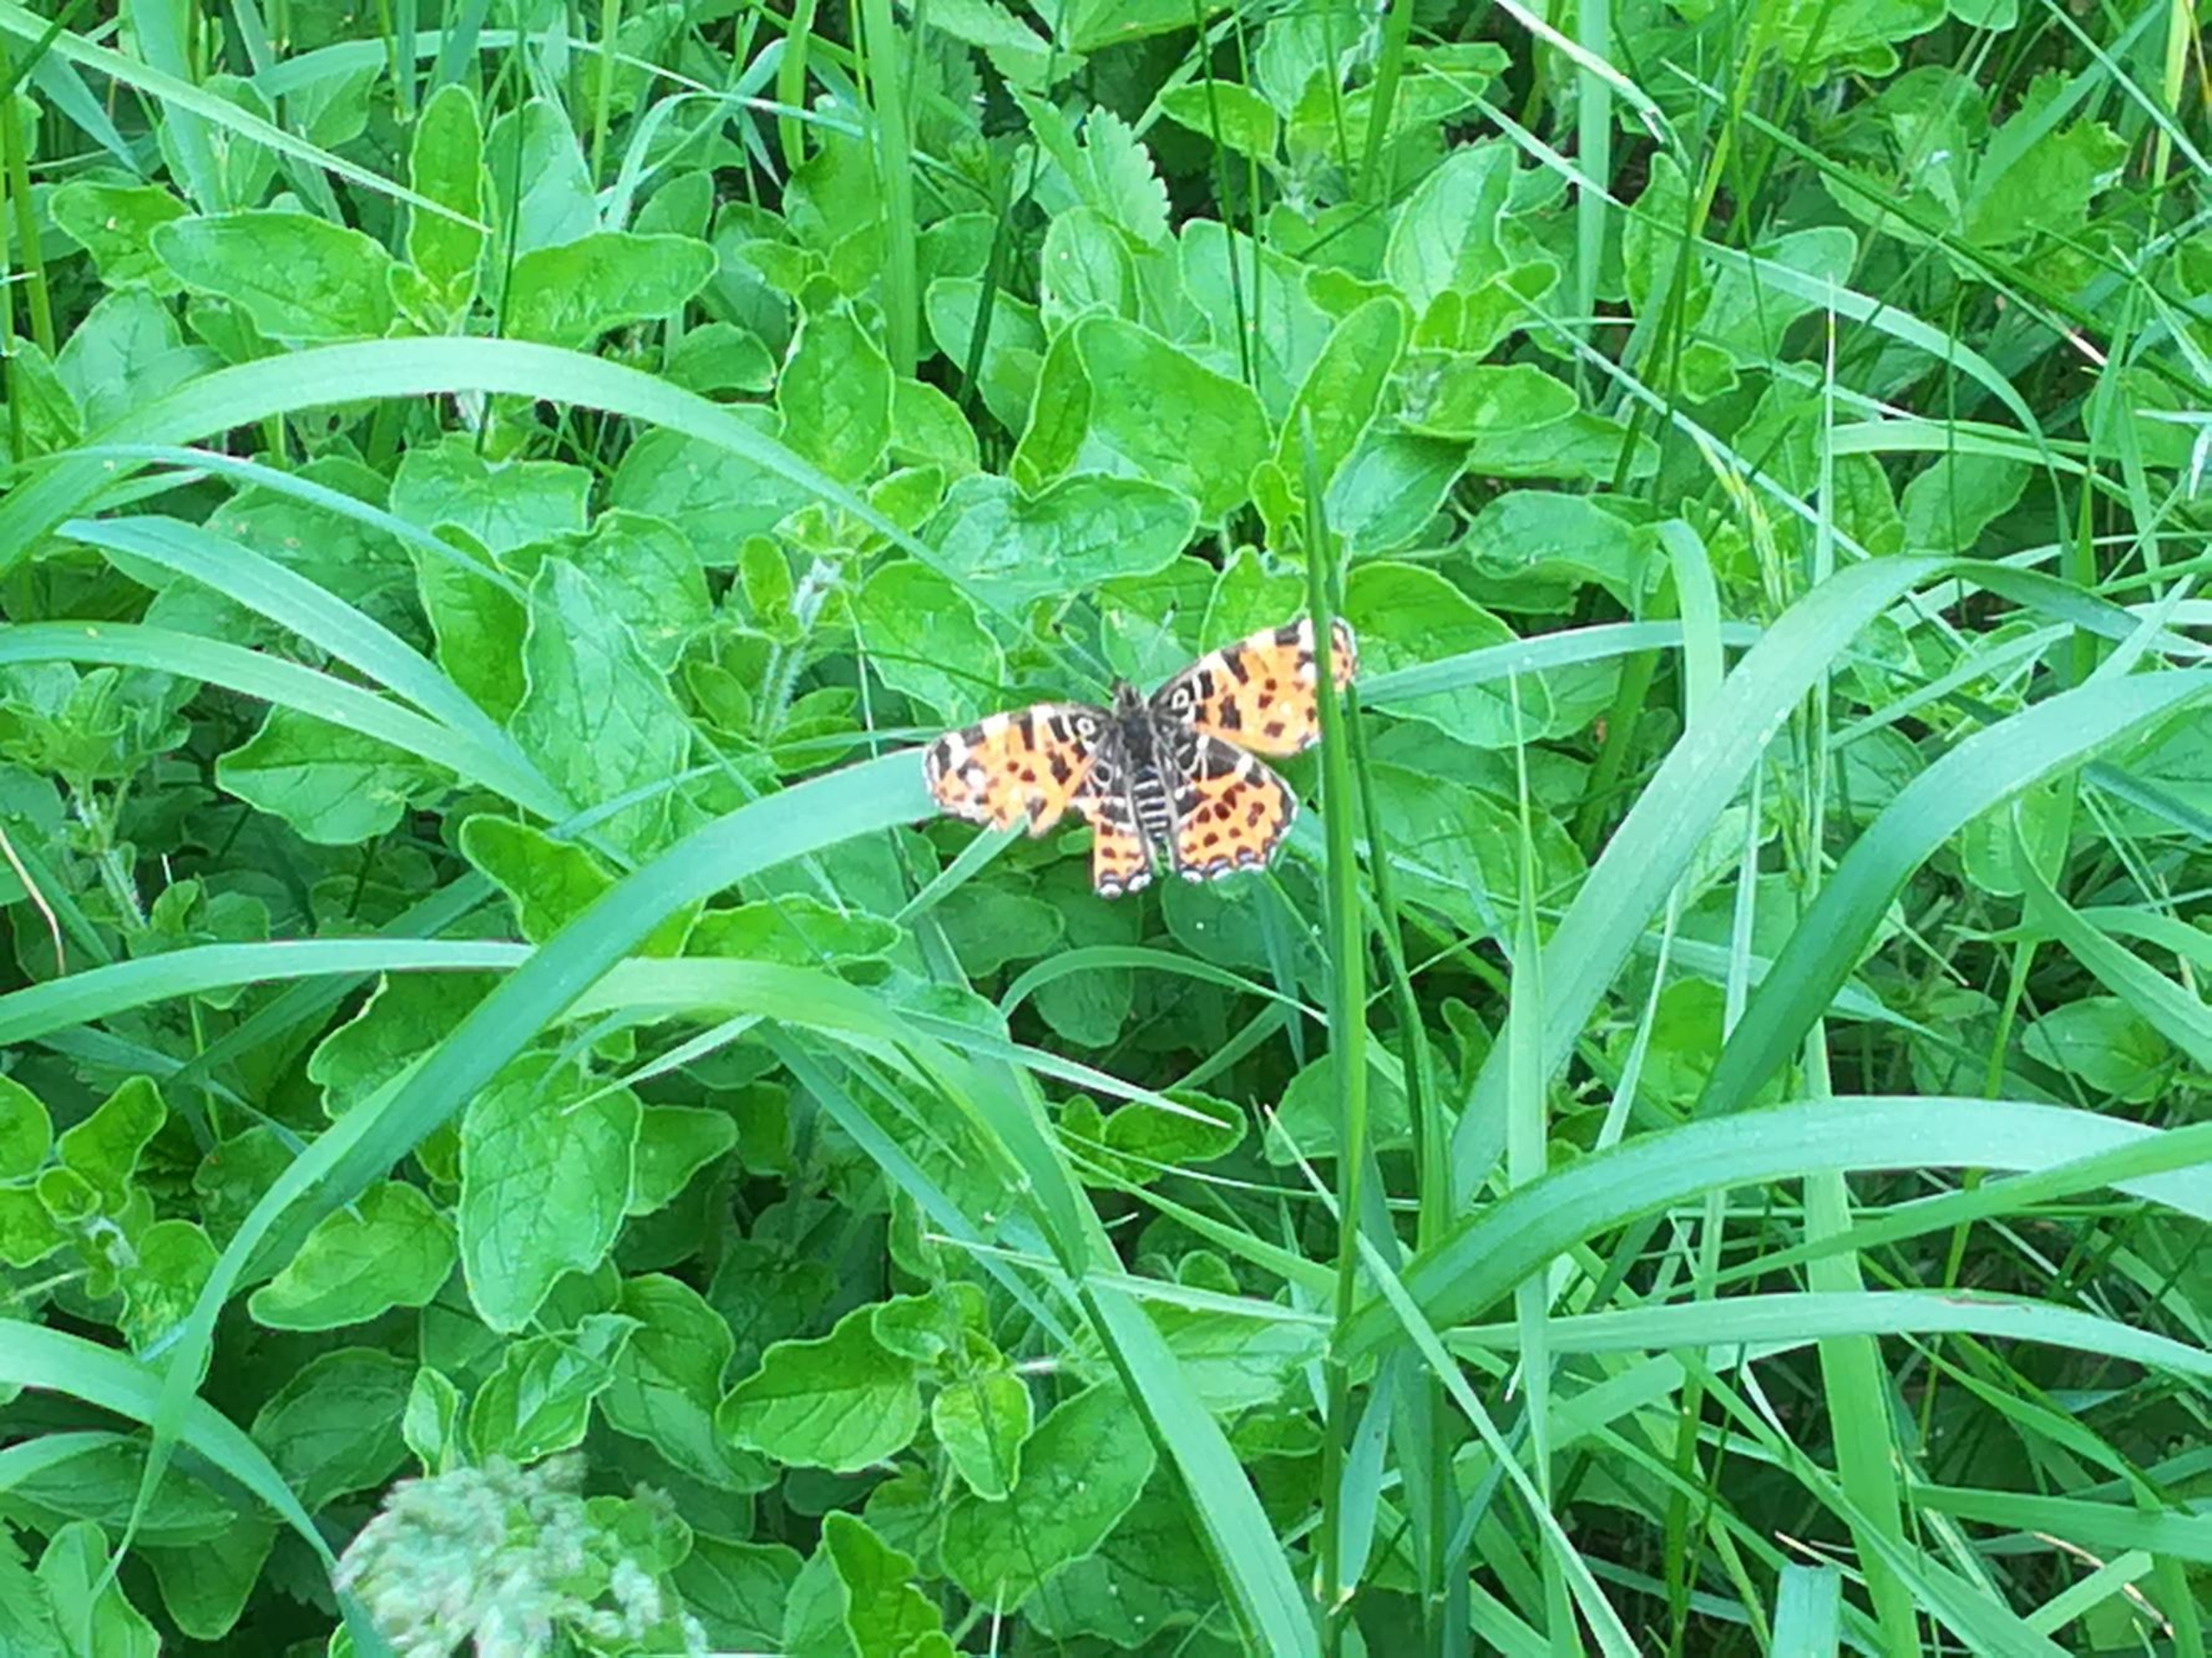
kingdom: Animalia
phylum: Arthropoda
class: Insecta
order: Lepidoptera
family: Nymphalidae
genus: Araschnia
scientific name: Araschnia levana
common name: Nældesommerfugl
